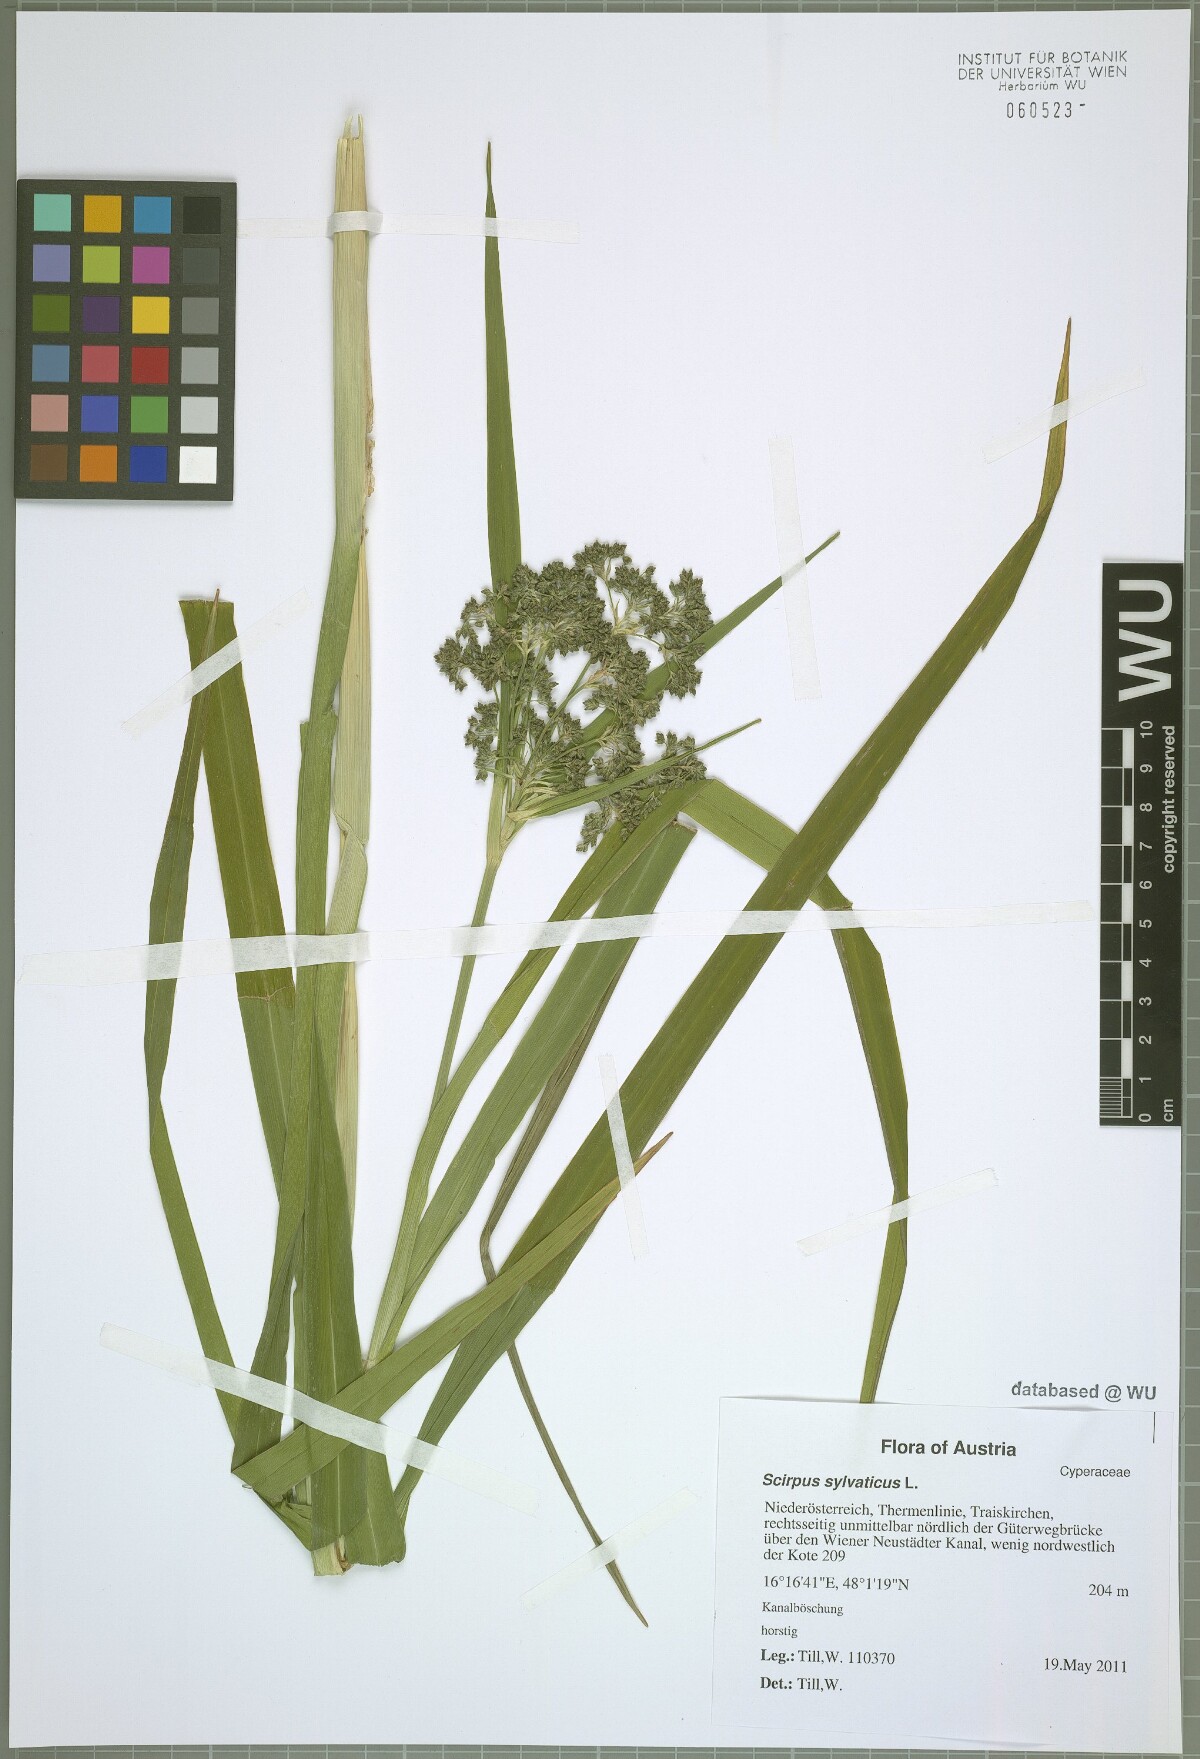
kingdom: Plantae
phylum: Tracheophyta
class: Liliopsida
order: Poales
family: Cyperaceae
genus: Scirpus
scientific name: Scirpus sylvaticus
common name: Wood club-rush
